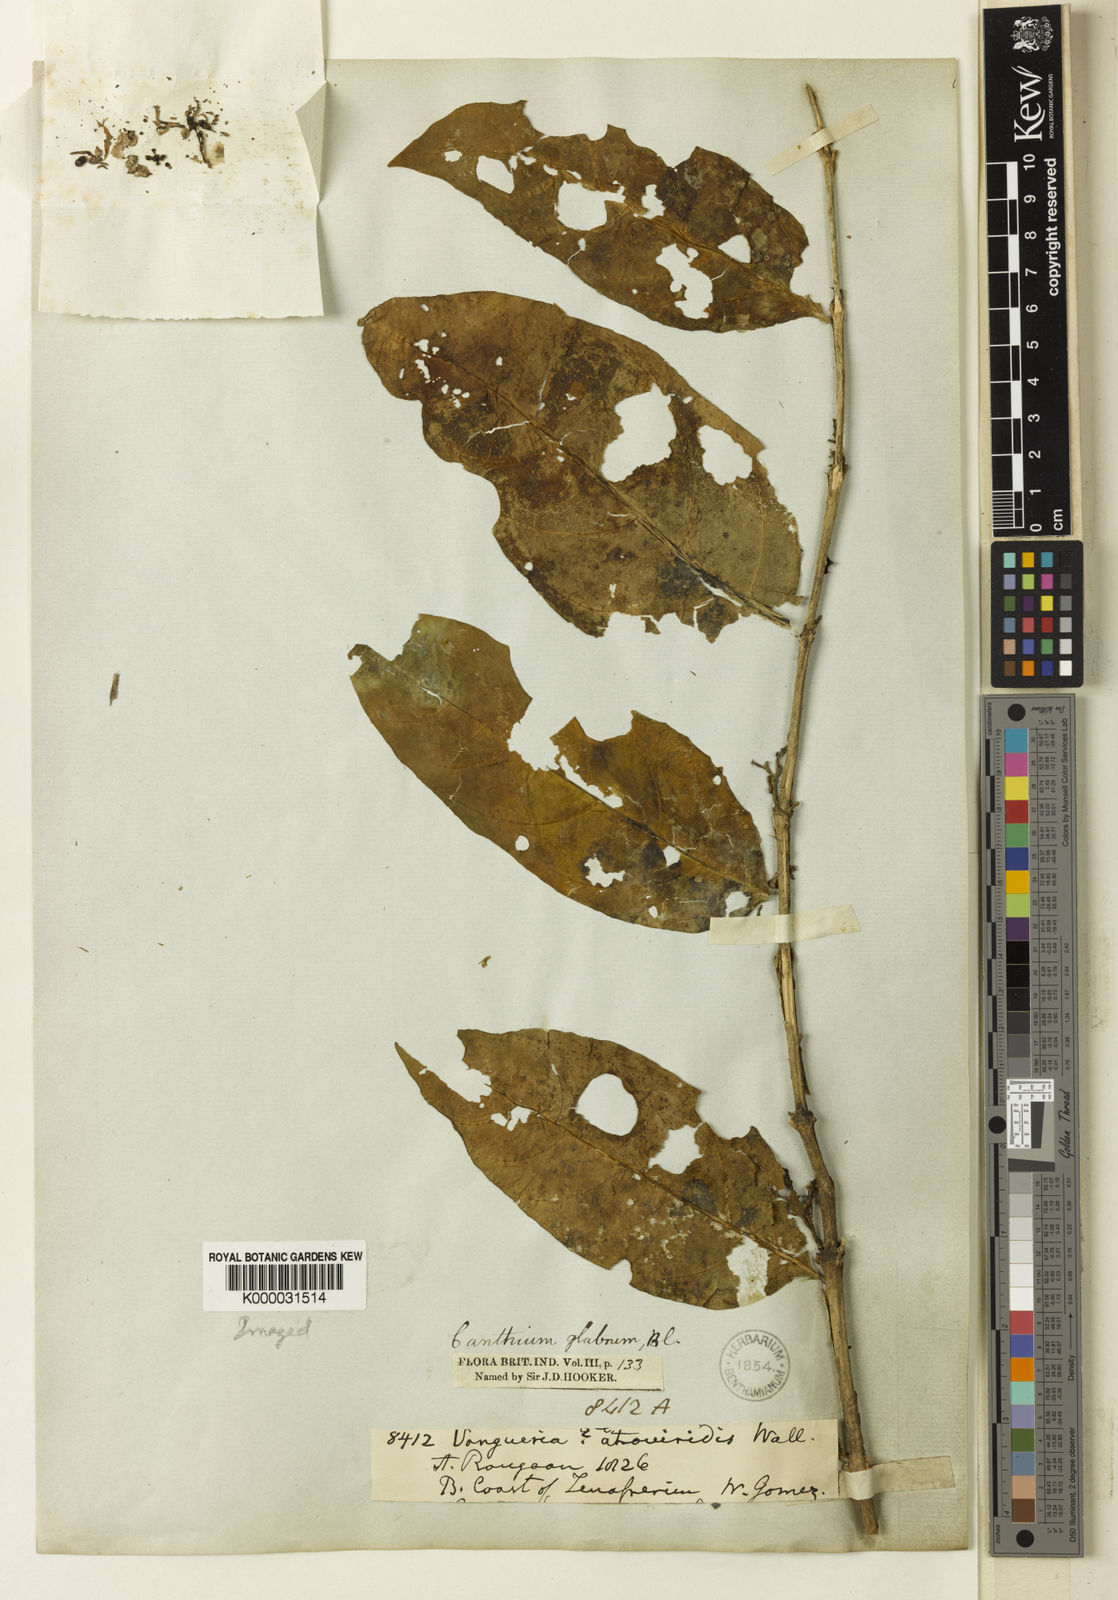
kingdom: Plantae
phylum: Tracheophyta
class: Magnoliopsida
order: Gentianales
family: Rubiaceae
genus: Canthiumera
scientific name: Canthiumera glabra
